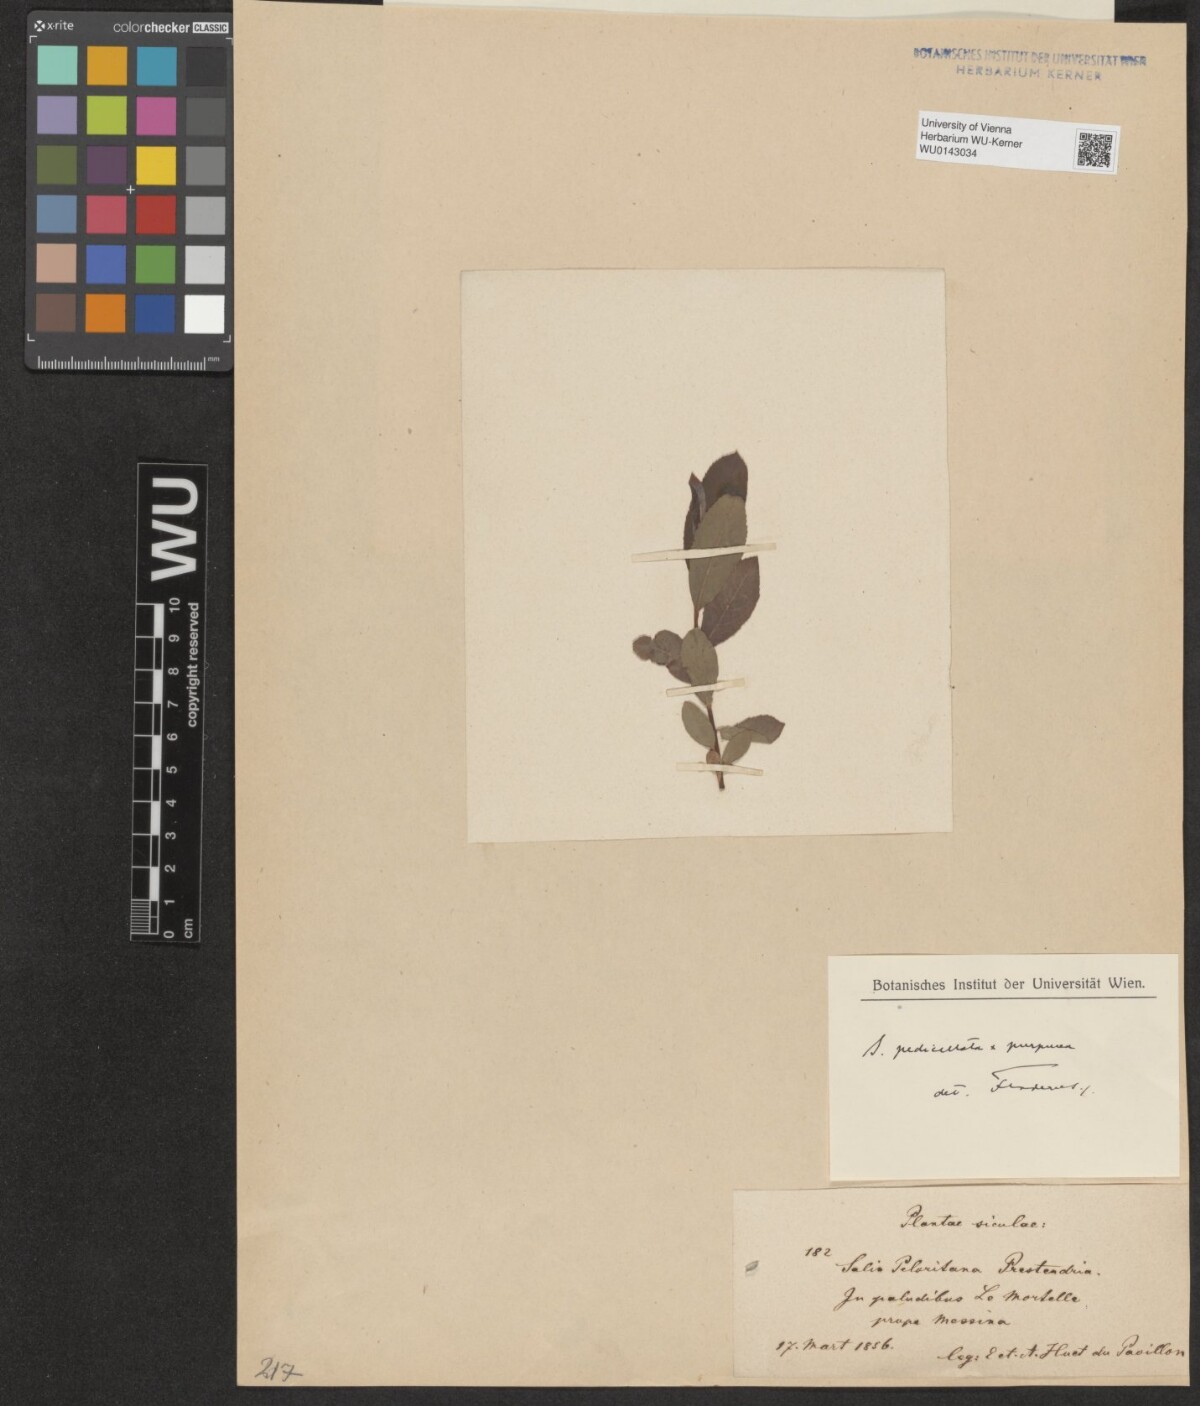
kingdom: Plantae
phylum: Tracheophyta
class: Magnoliopsida
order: Malpighiales
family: Salicaceae
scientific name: Salicaceae
